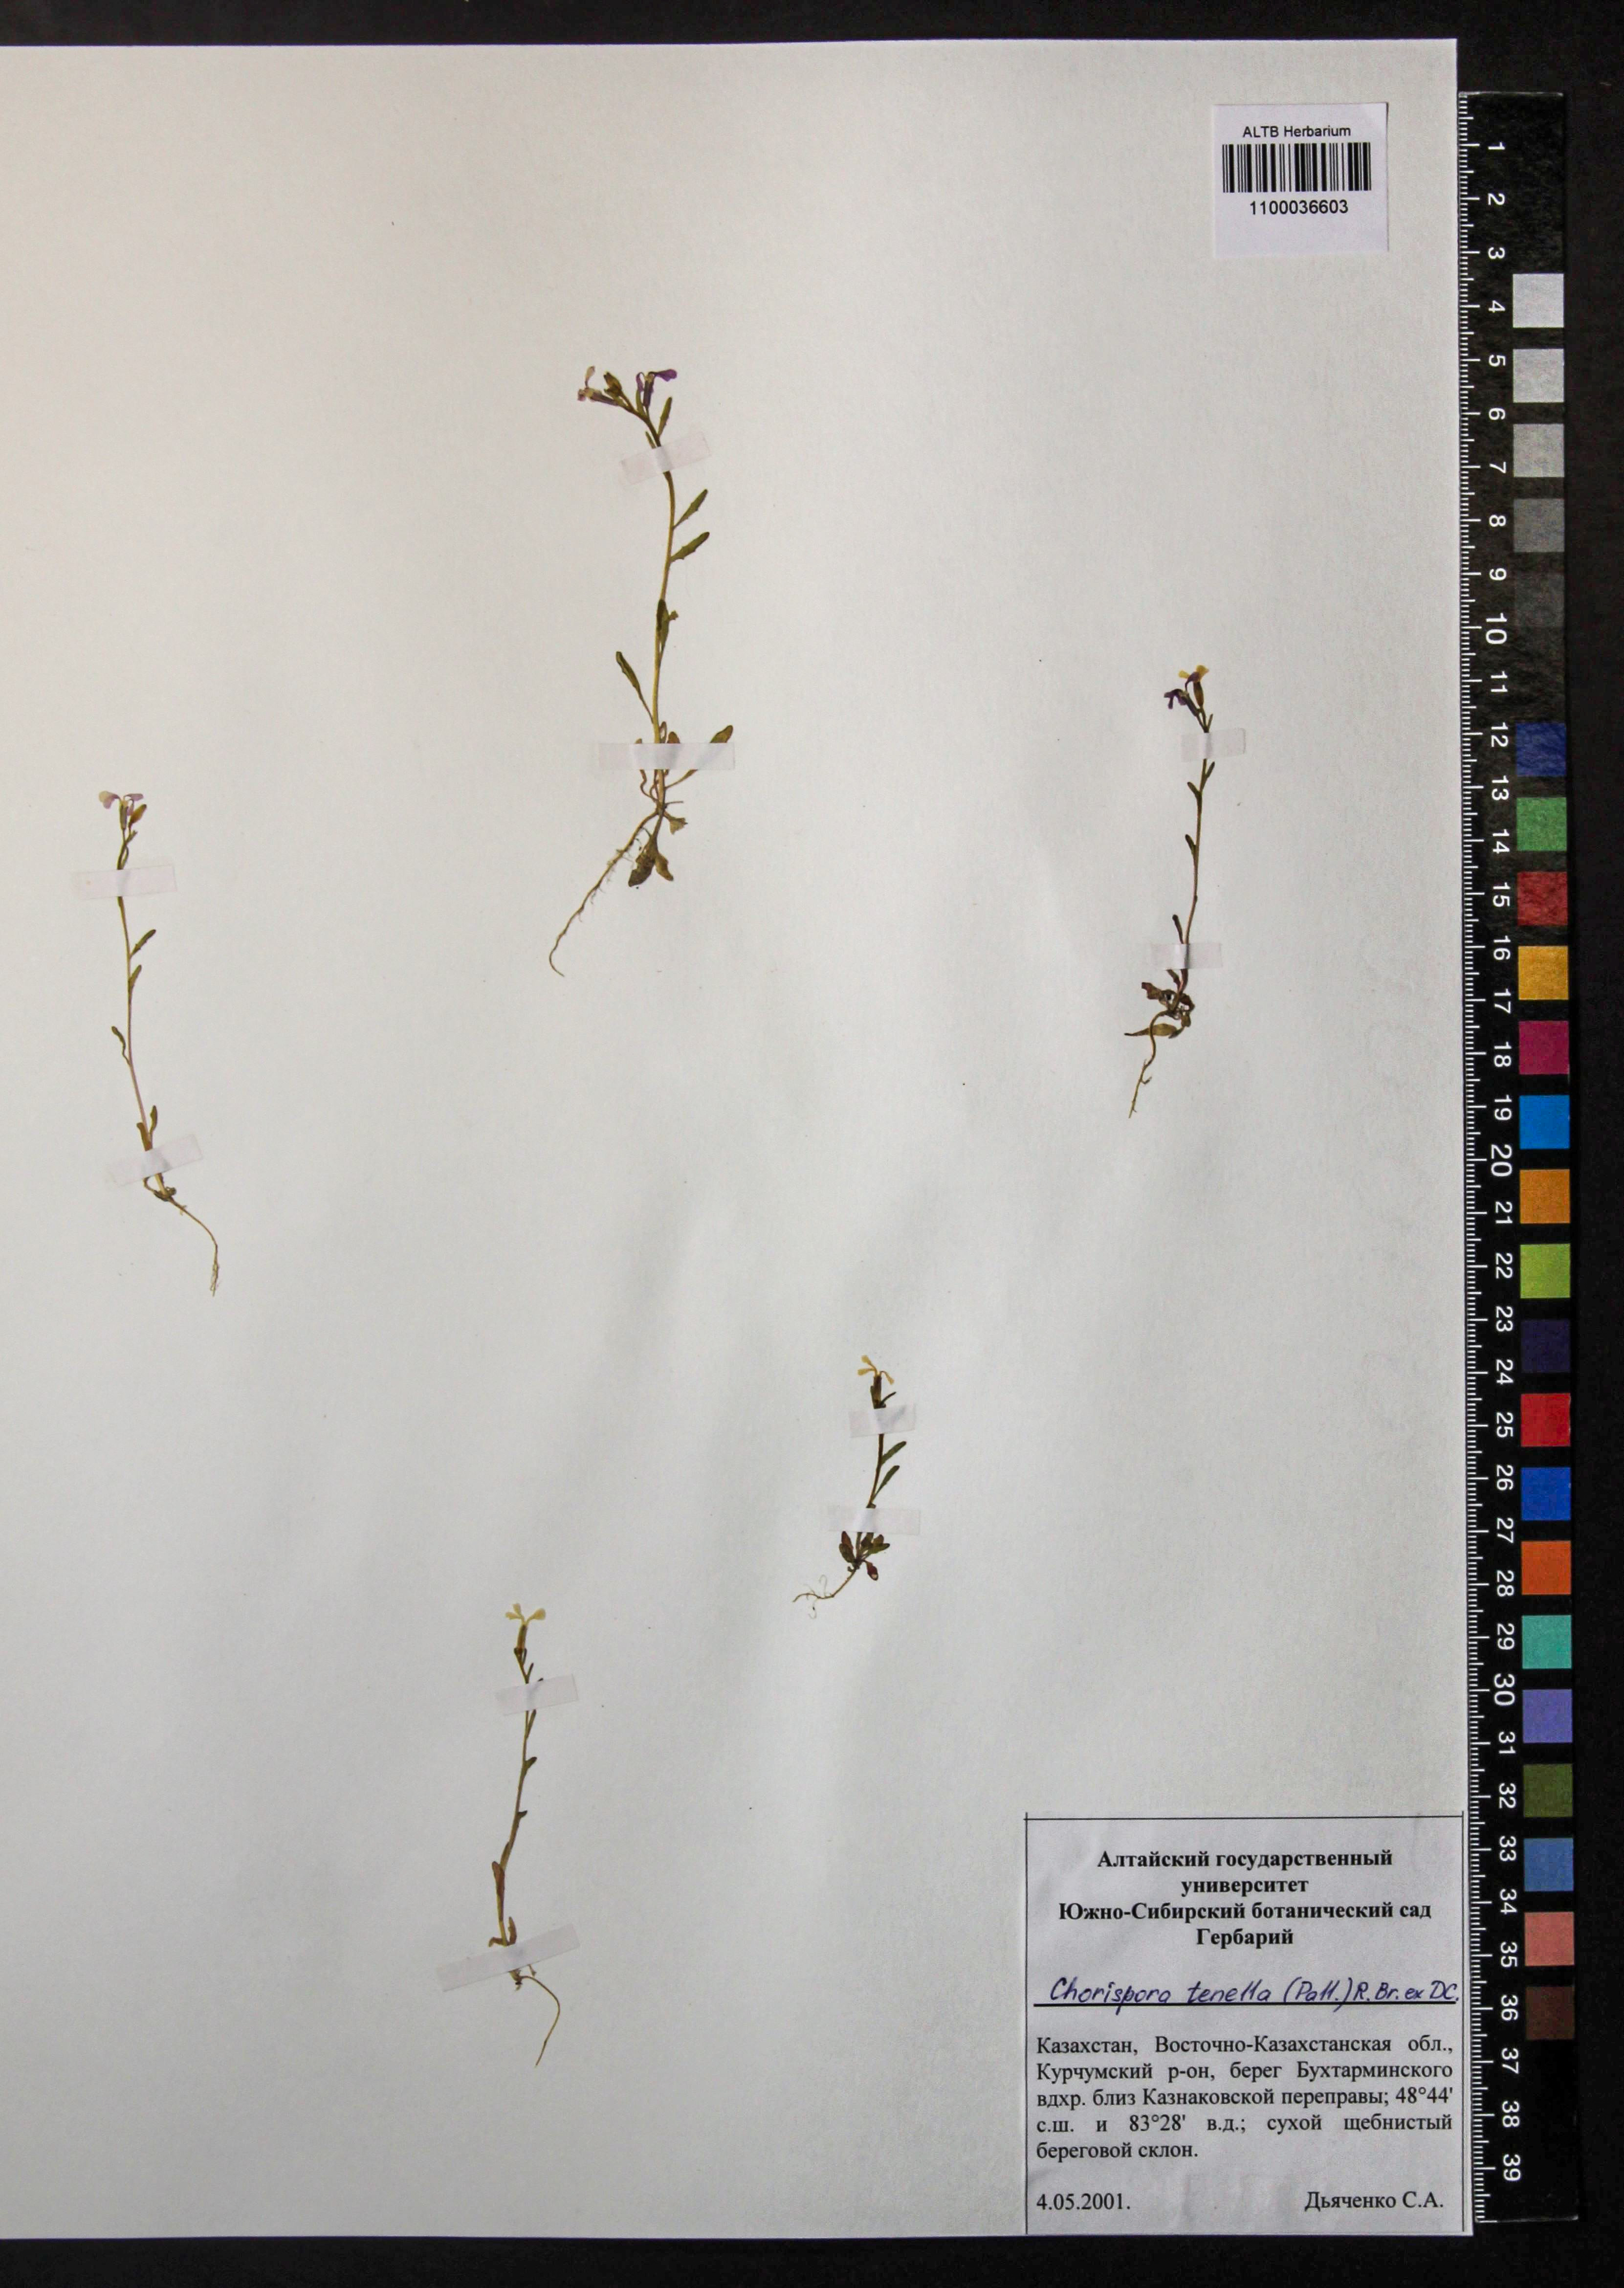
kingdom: Plantae
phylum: Tracheophyta
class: Magnoliopsida
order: Brassicales
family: Brassicaceae
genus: Chorispora
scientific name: Chorispora tenella
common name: Crossflower
